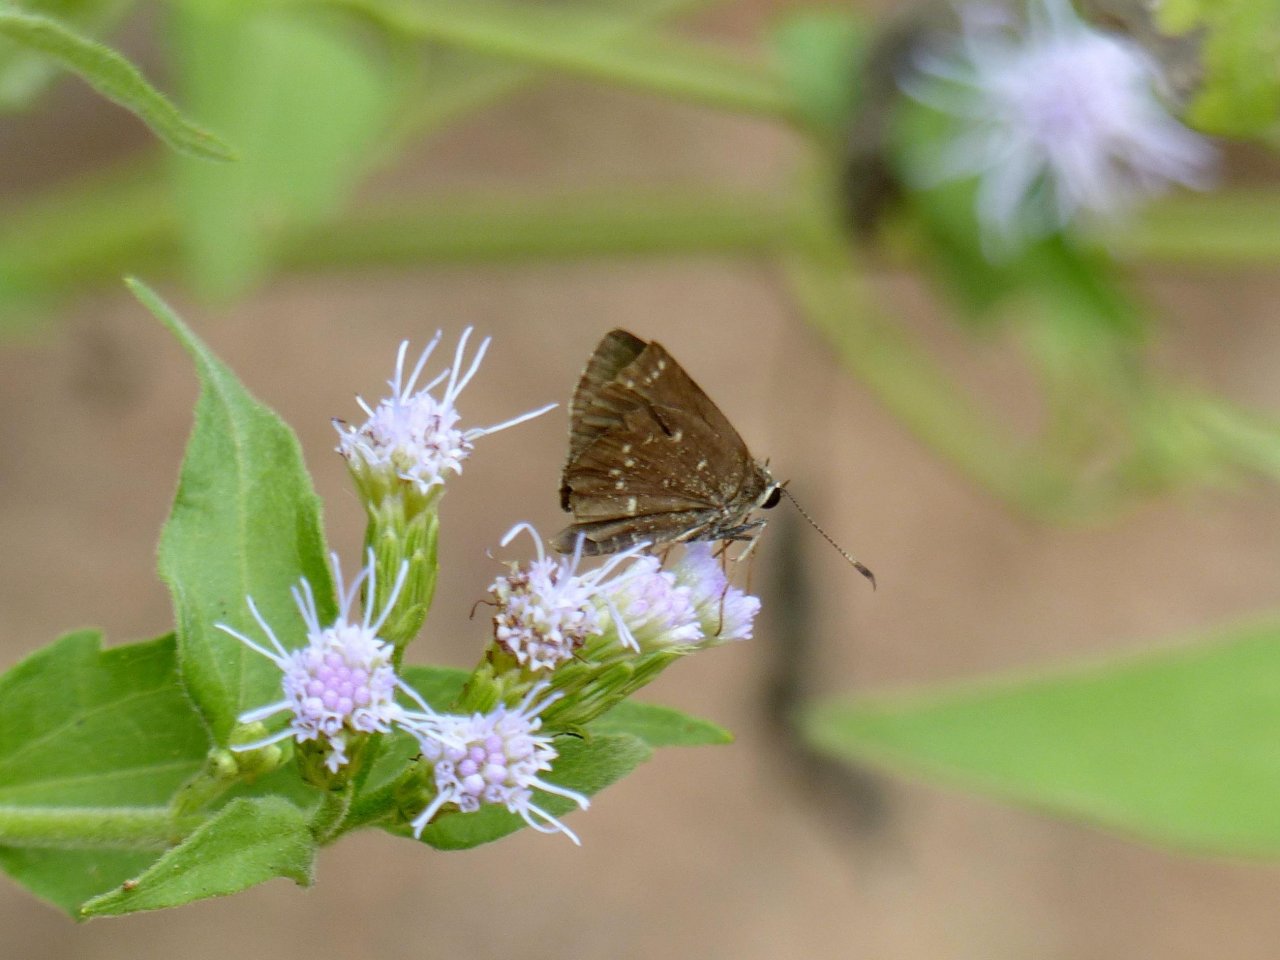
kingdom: Animalia
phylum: Arthropoda
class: Insecta
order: Lepidoptera
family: Hesperiidae
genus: Mastor
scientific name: Mastor celia
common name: Celia's Roadside-Skipper
